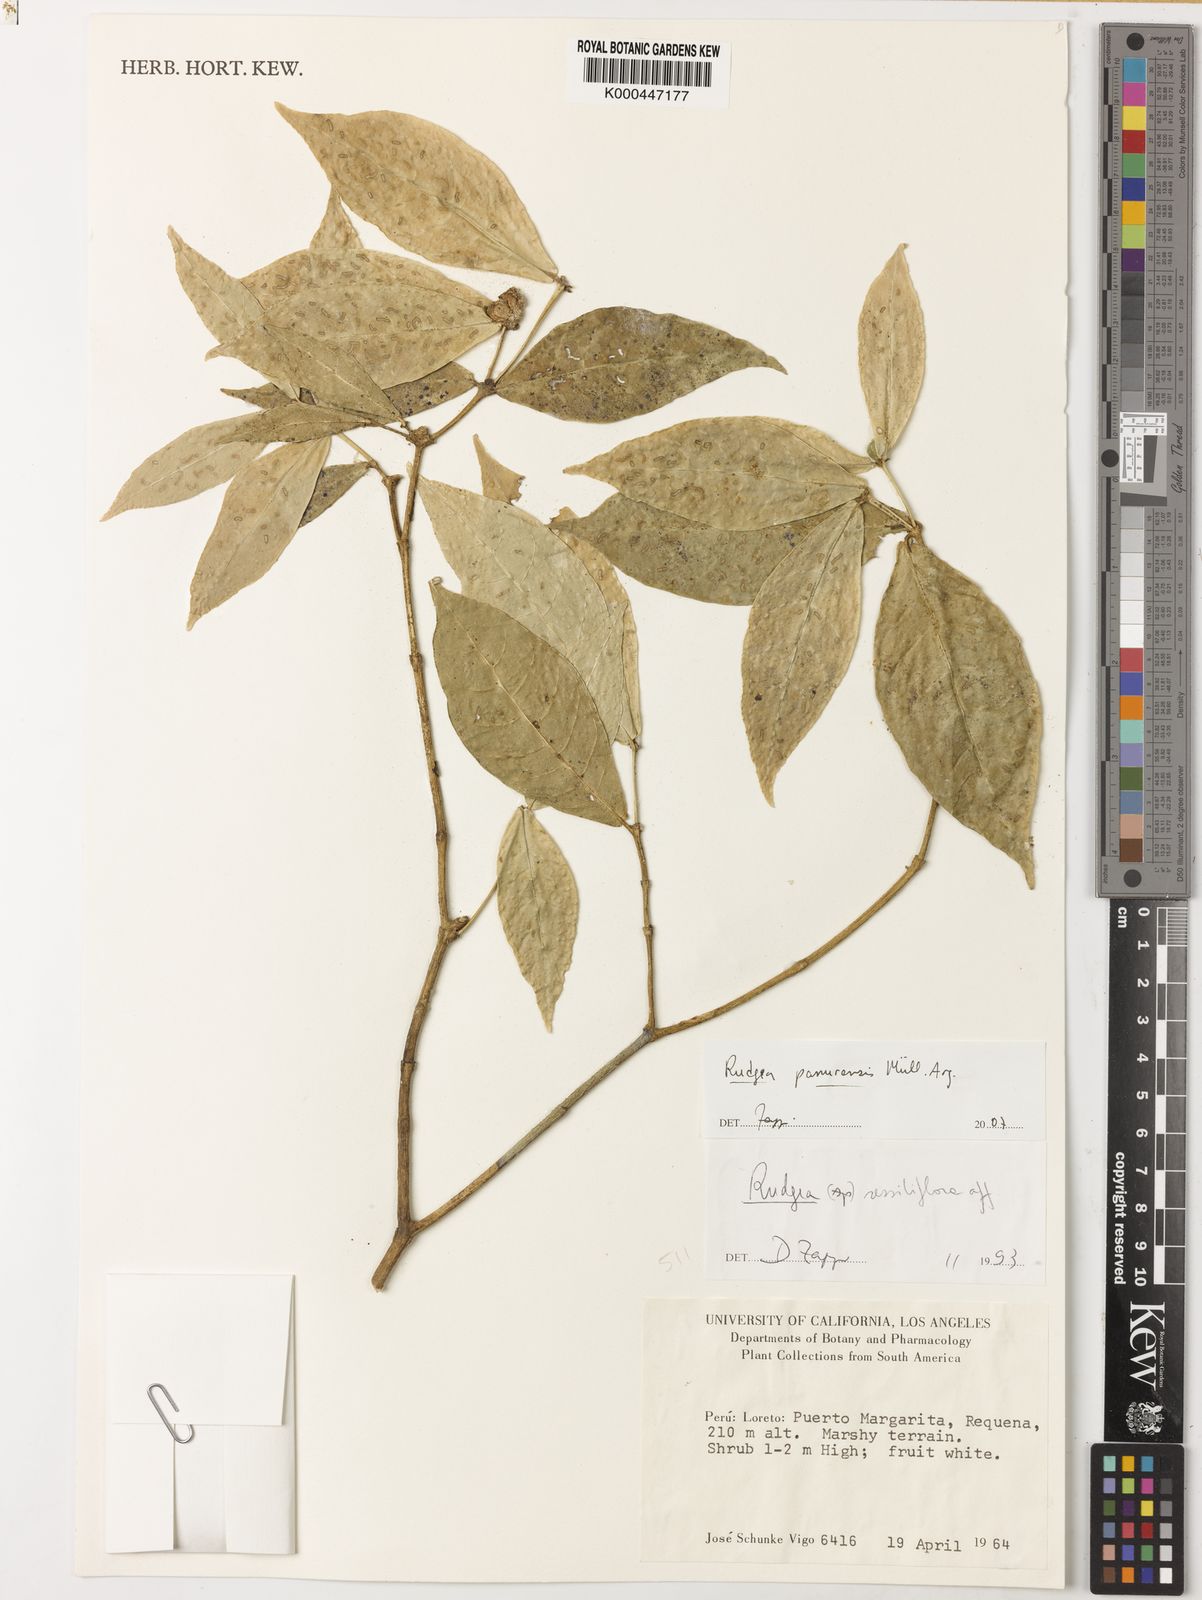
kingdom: Plantae
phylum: Tracheophyta
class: Magnoliopsida
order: Gentianales
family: Rubiaceae
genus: Rudgea
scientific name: Rudgea panurensis
